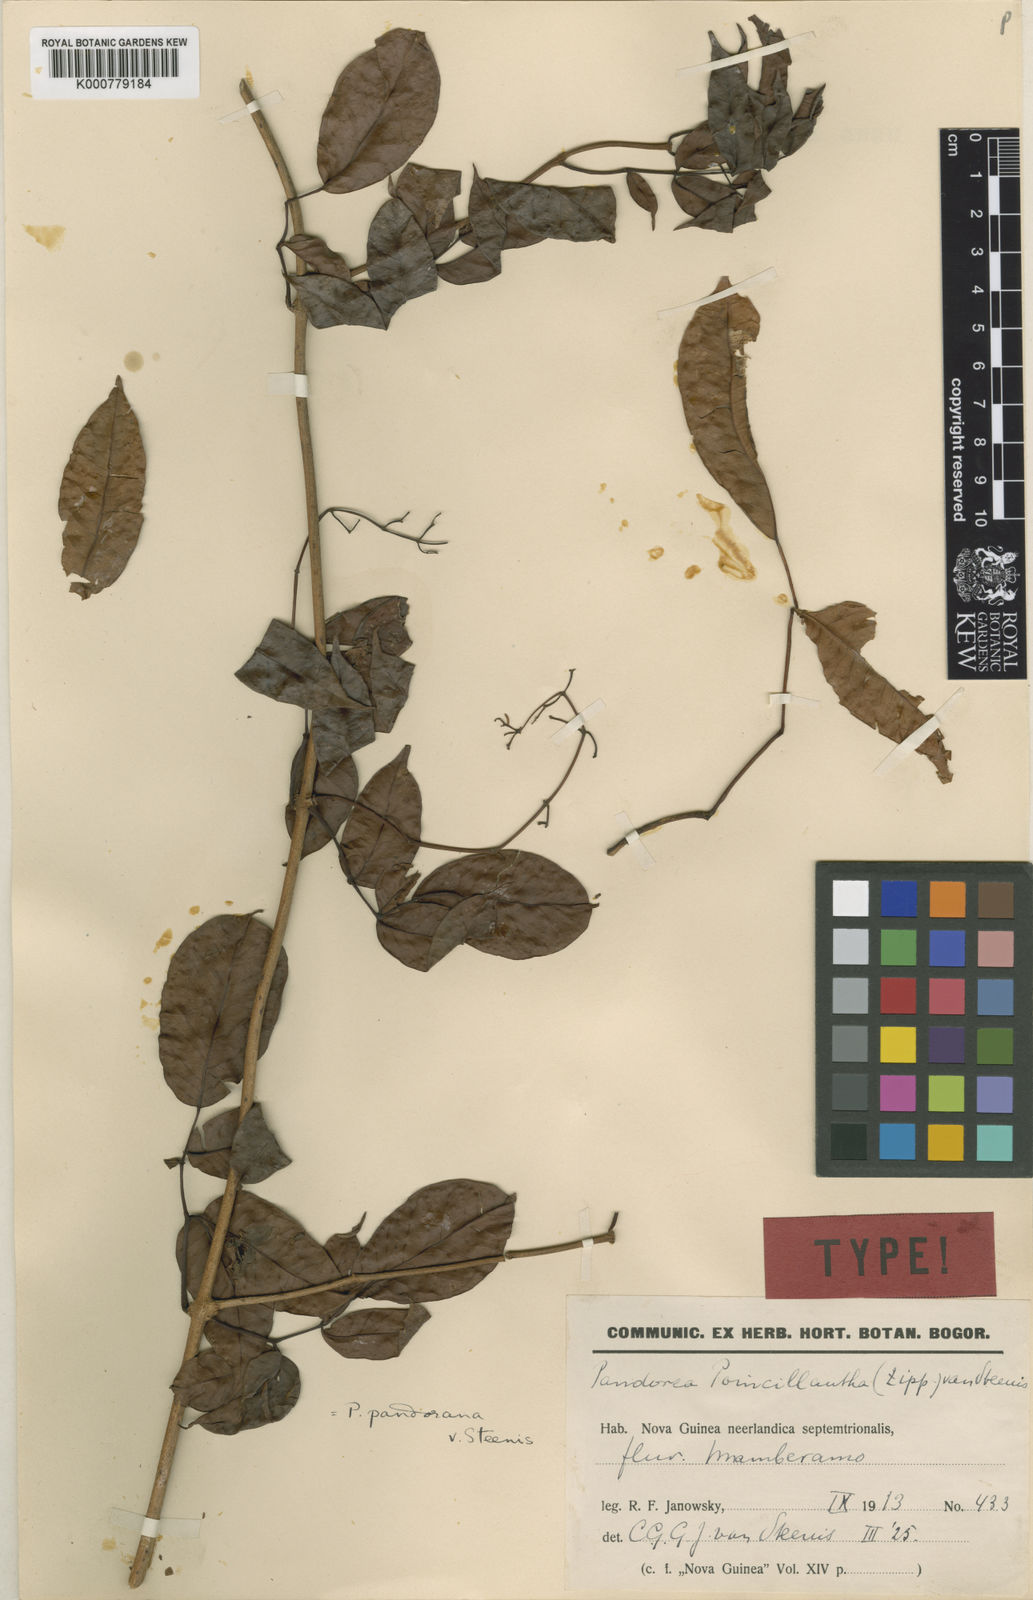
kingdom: Plantae
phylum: Tracheophyta
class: Magnoliopsida
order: Lamiales
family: Bignoniaceae
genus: Pandorea
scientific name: Pandorea pandorana
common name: Wonga-wonga-vine
